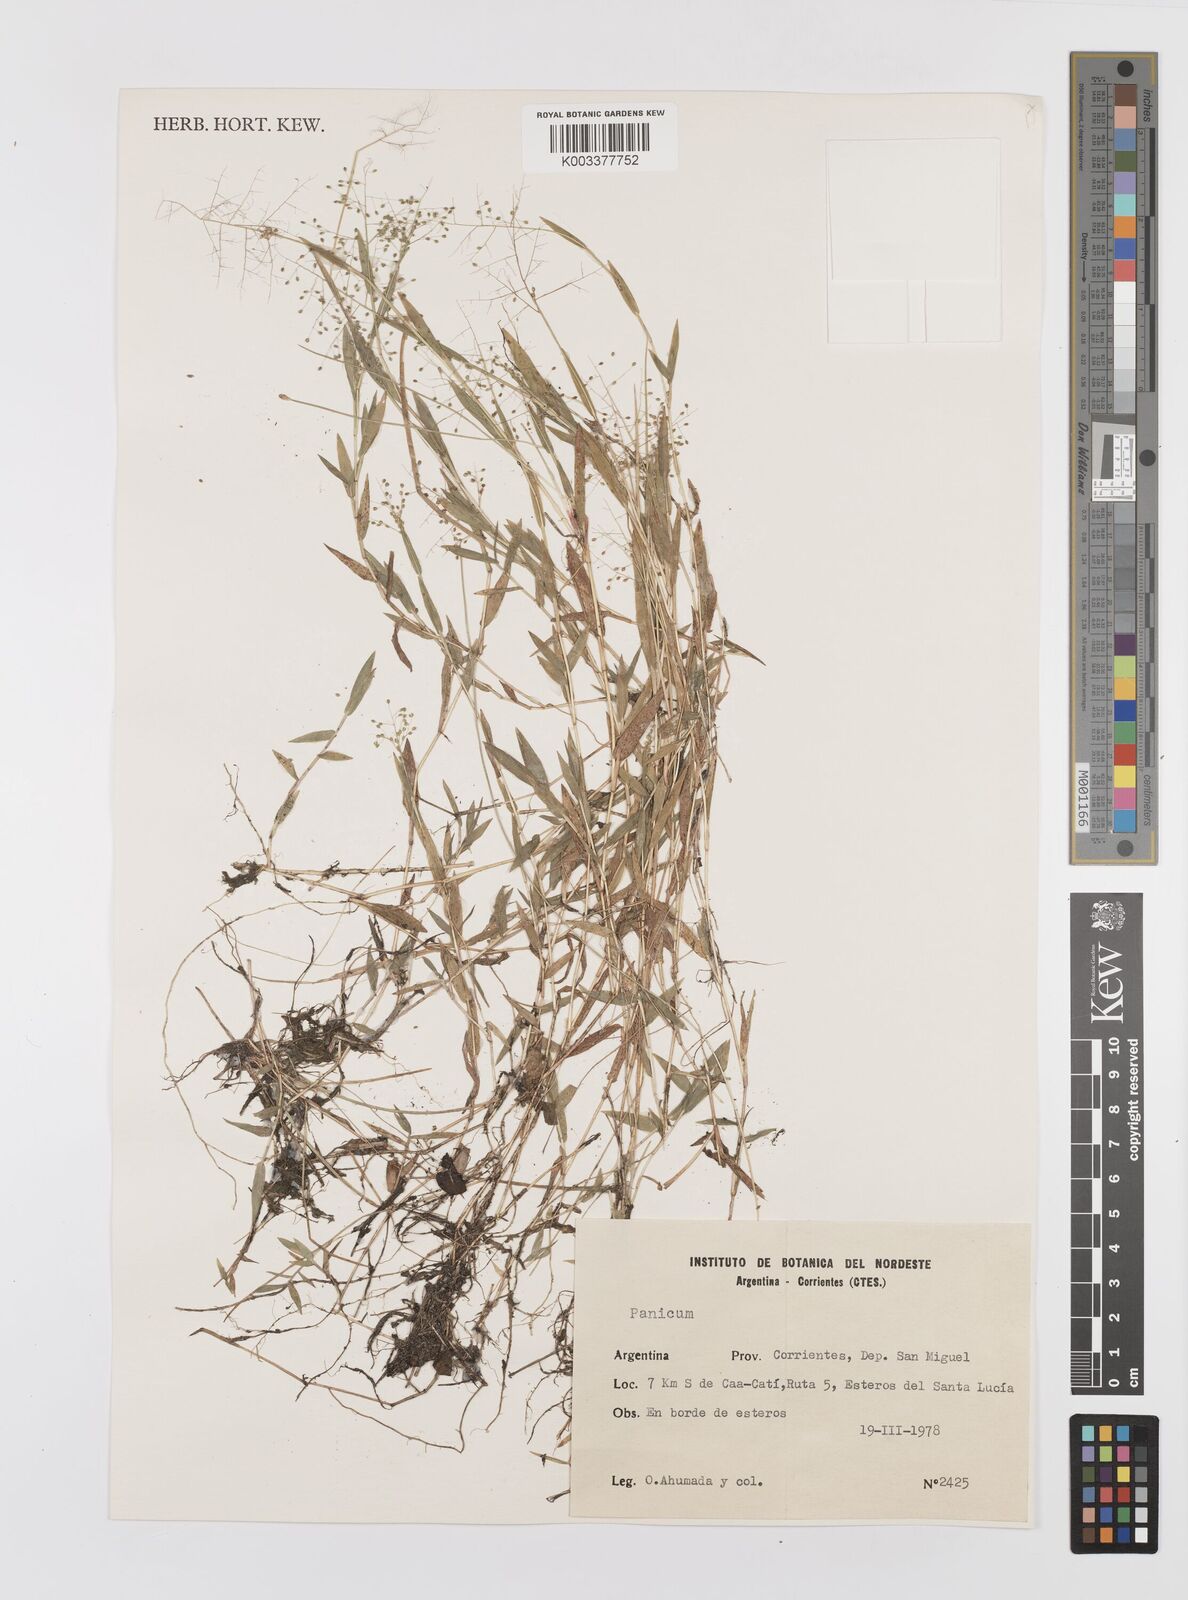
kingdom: Plantae
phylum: Tracheophyta
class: Liliopsida
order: Poales
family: Poaceae
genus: Trichanthecium
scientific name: Trichanthecium parvifolium
